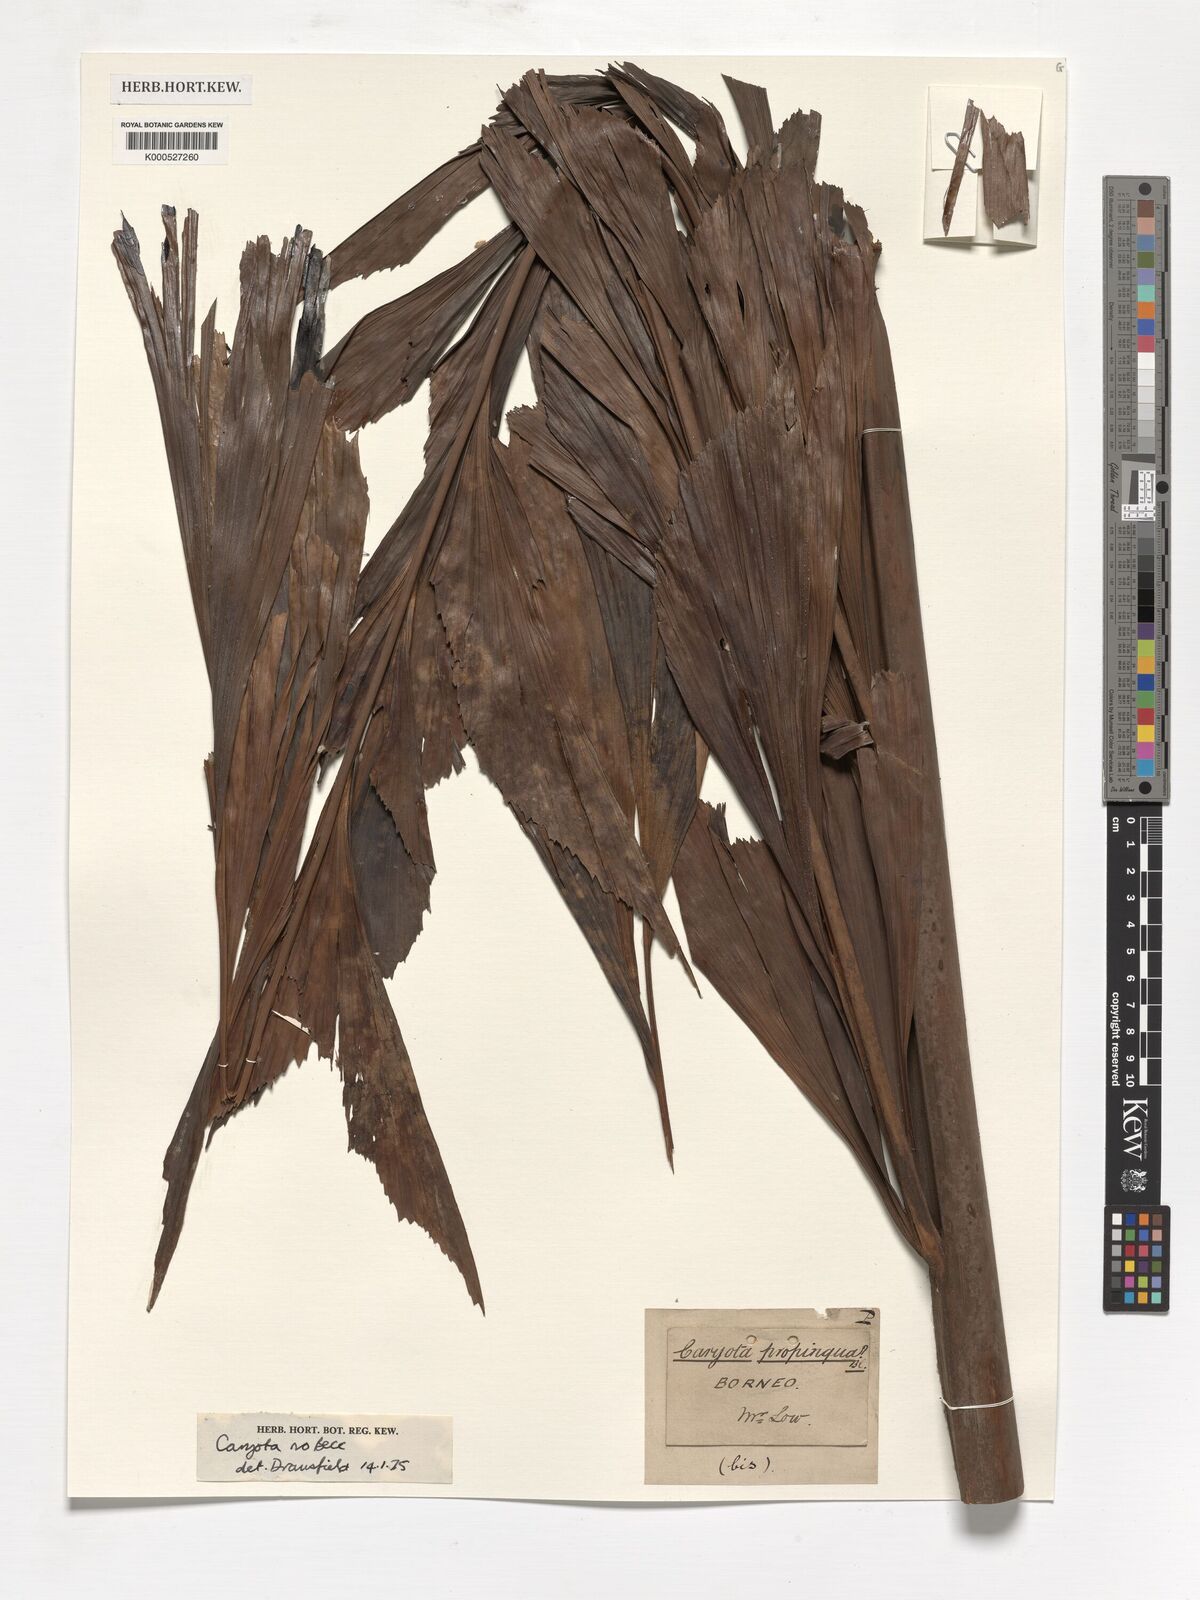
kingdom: Plantae
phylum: Tracheophyta
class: Liliopsida
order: Arecales
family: Arecaceae
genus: Caryota
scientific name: Caryota
